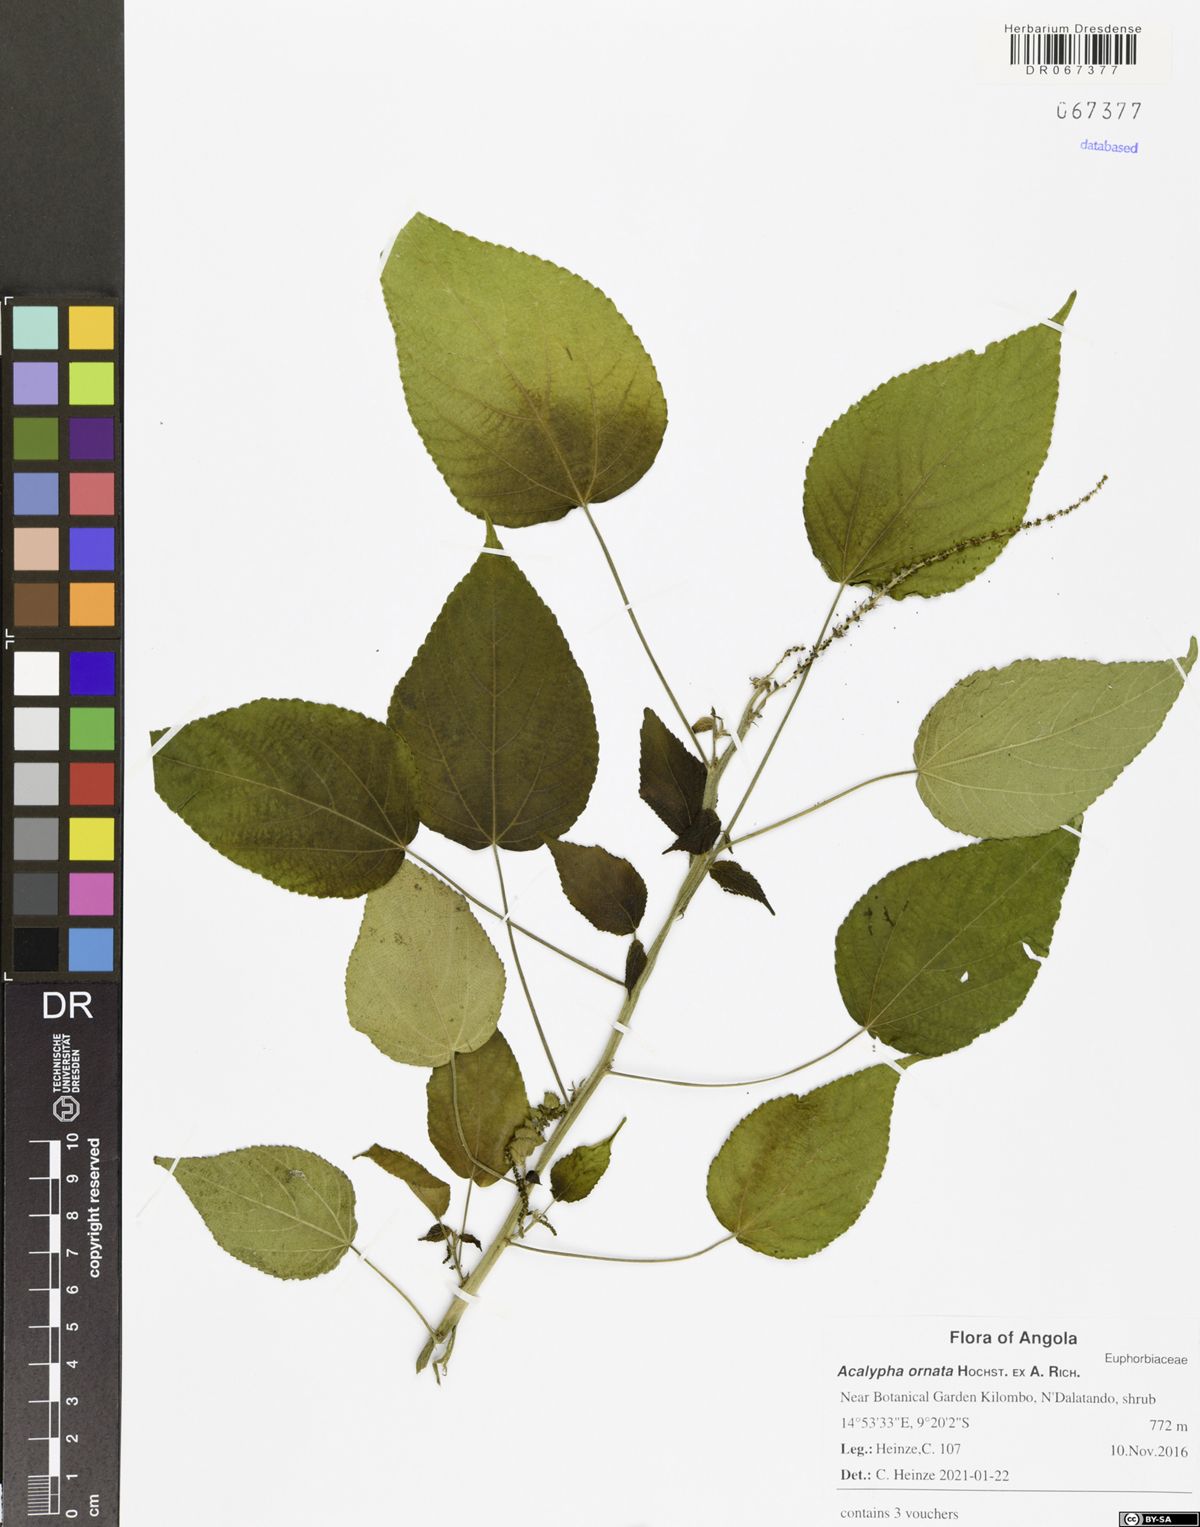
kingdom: Plantae
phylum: Tracheophyta
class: Magnoliopsida
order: Malpighiales
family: Euphorbiaceae
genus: Acalypha
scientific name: Acalypha ornata
